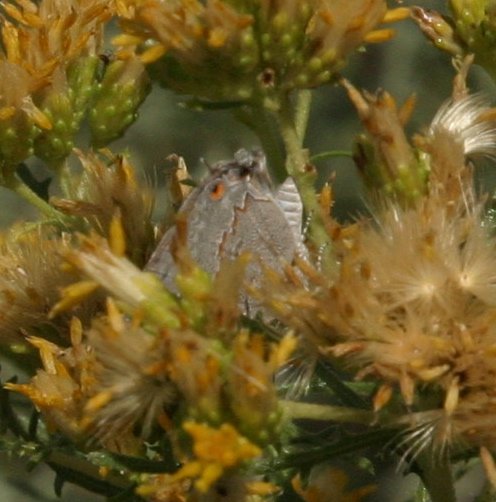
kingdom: Animalia
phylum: Arthropoda
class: Insecta
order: Lepidoptera
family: Lycaenidae
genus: Ministrymon
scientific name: Ministrymon leda
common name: Leda Ministreak
